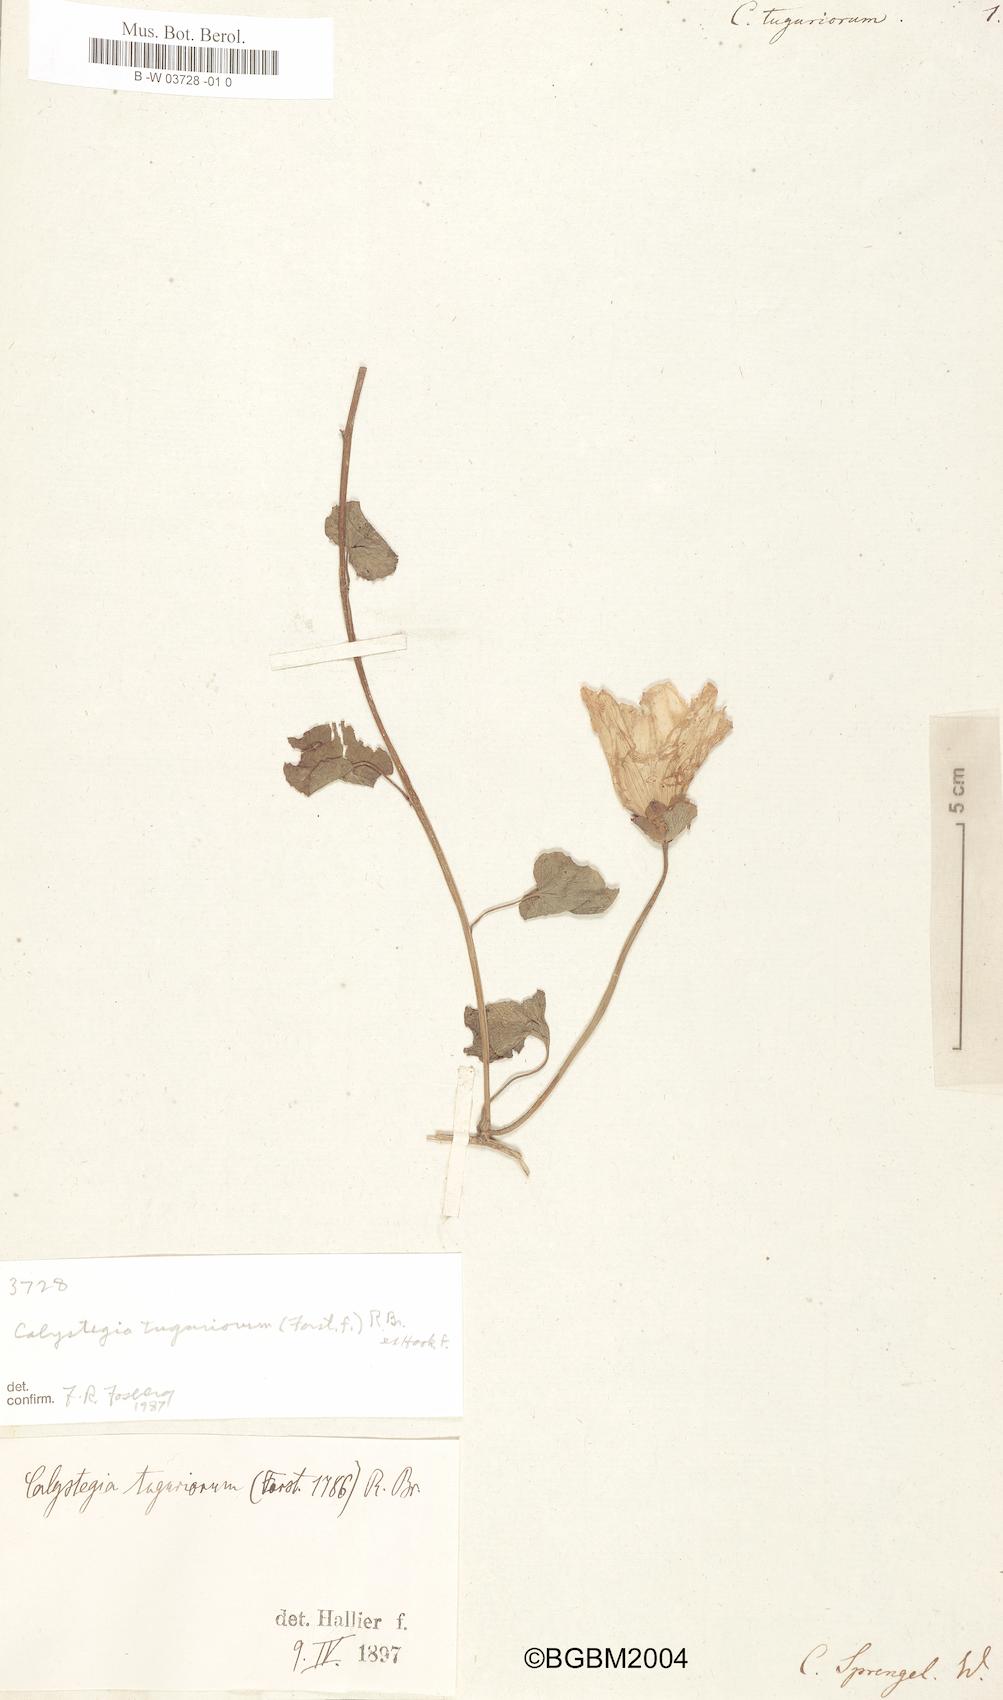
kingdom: Plantae
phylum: Tracheophyta
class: Magnoliopsida
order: Solanales
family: Convolvulaceae
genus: Calystegia
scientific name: Calystegia tuguriorum
